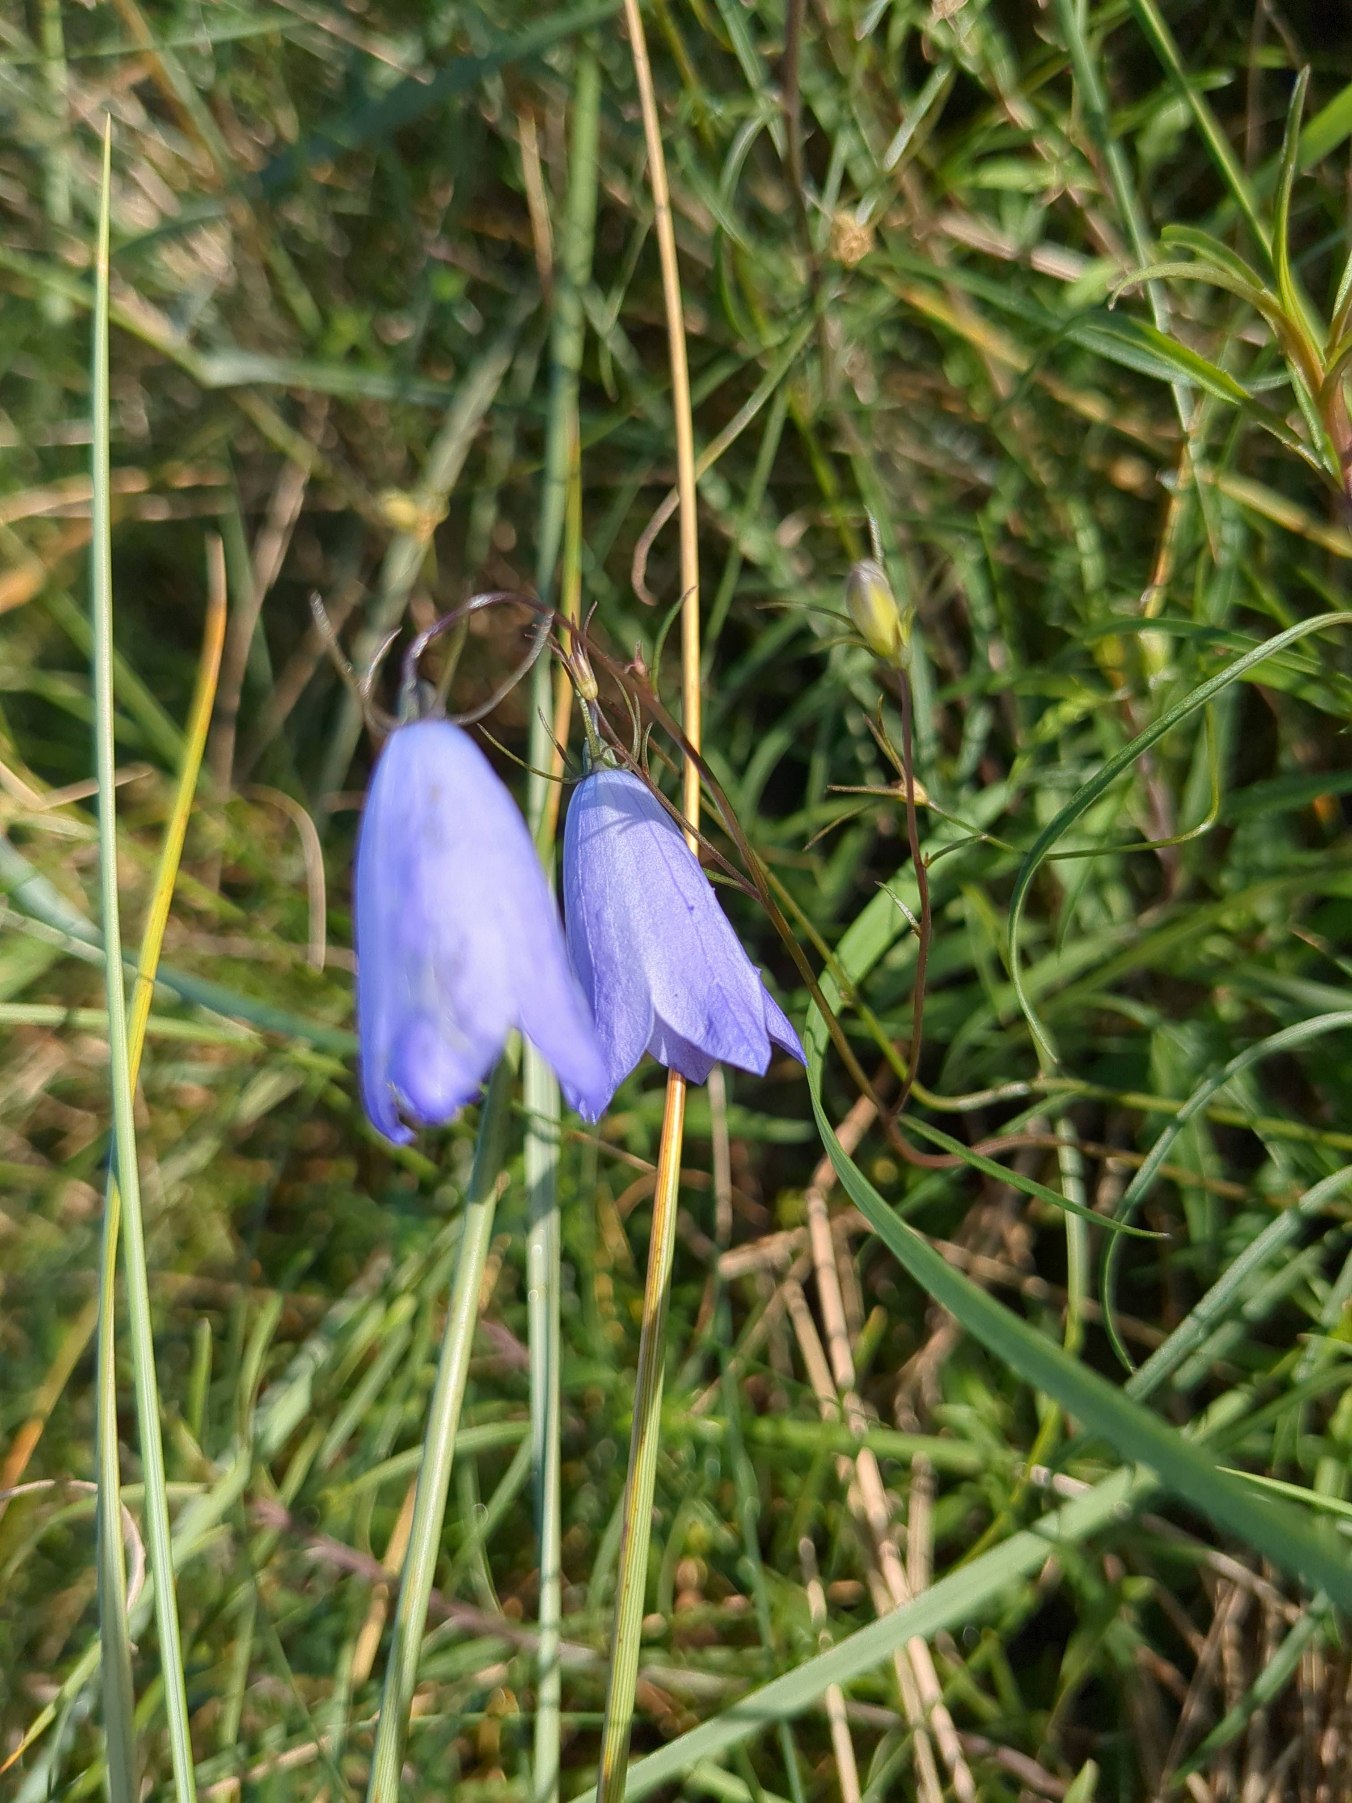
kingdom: Plantae
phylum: Tracheophyta
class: Magnoliopsida
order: Asterales
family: Campanulaceae
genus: Campanula
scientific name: Campanula rotundifolia
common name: Liden klokke
